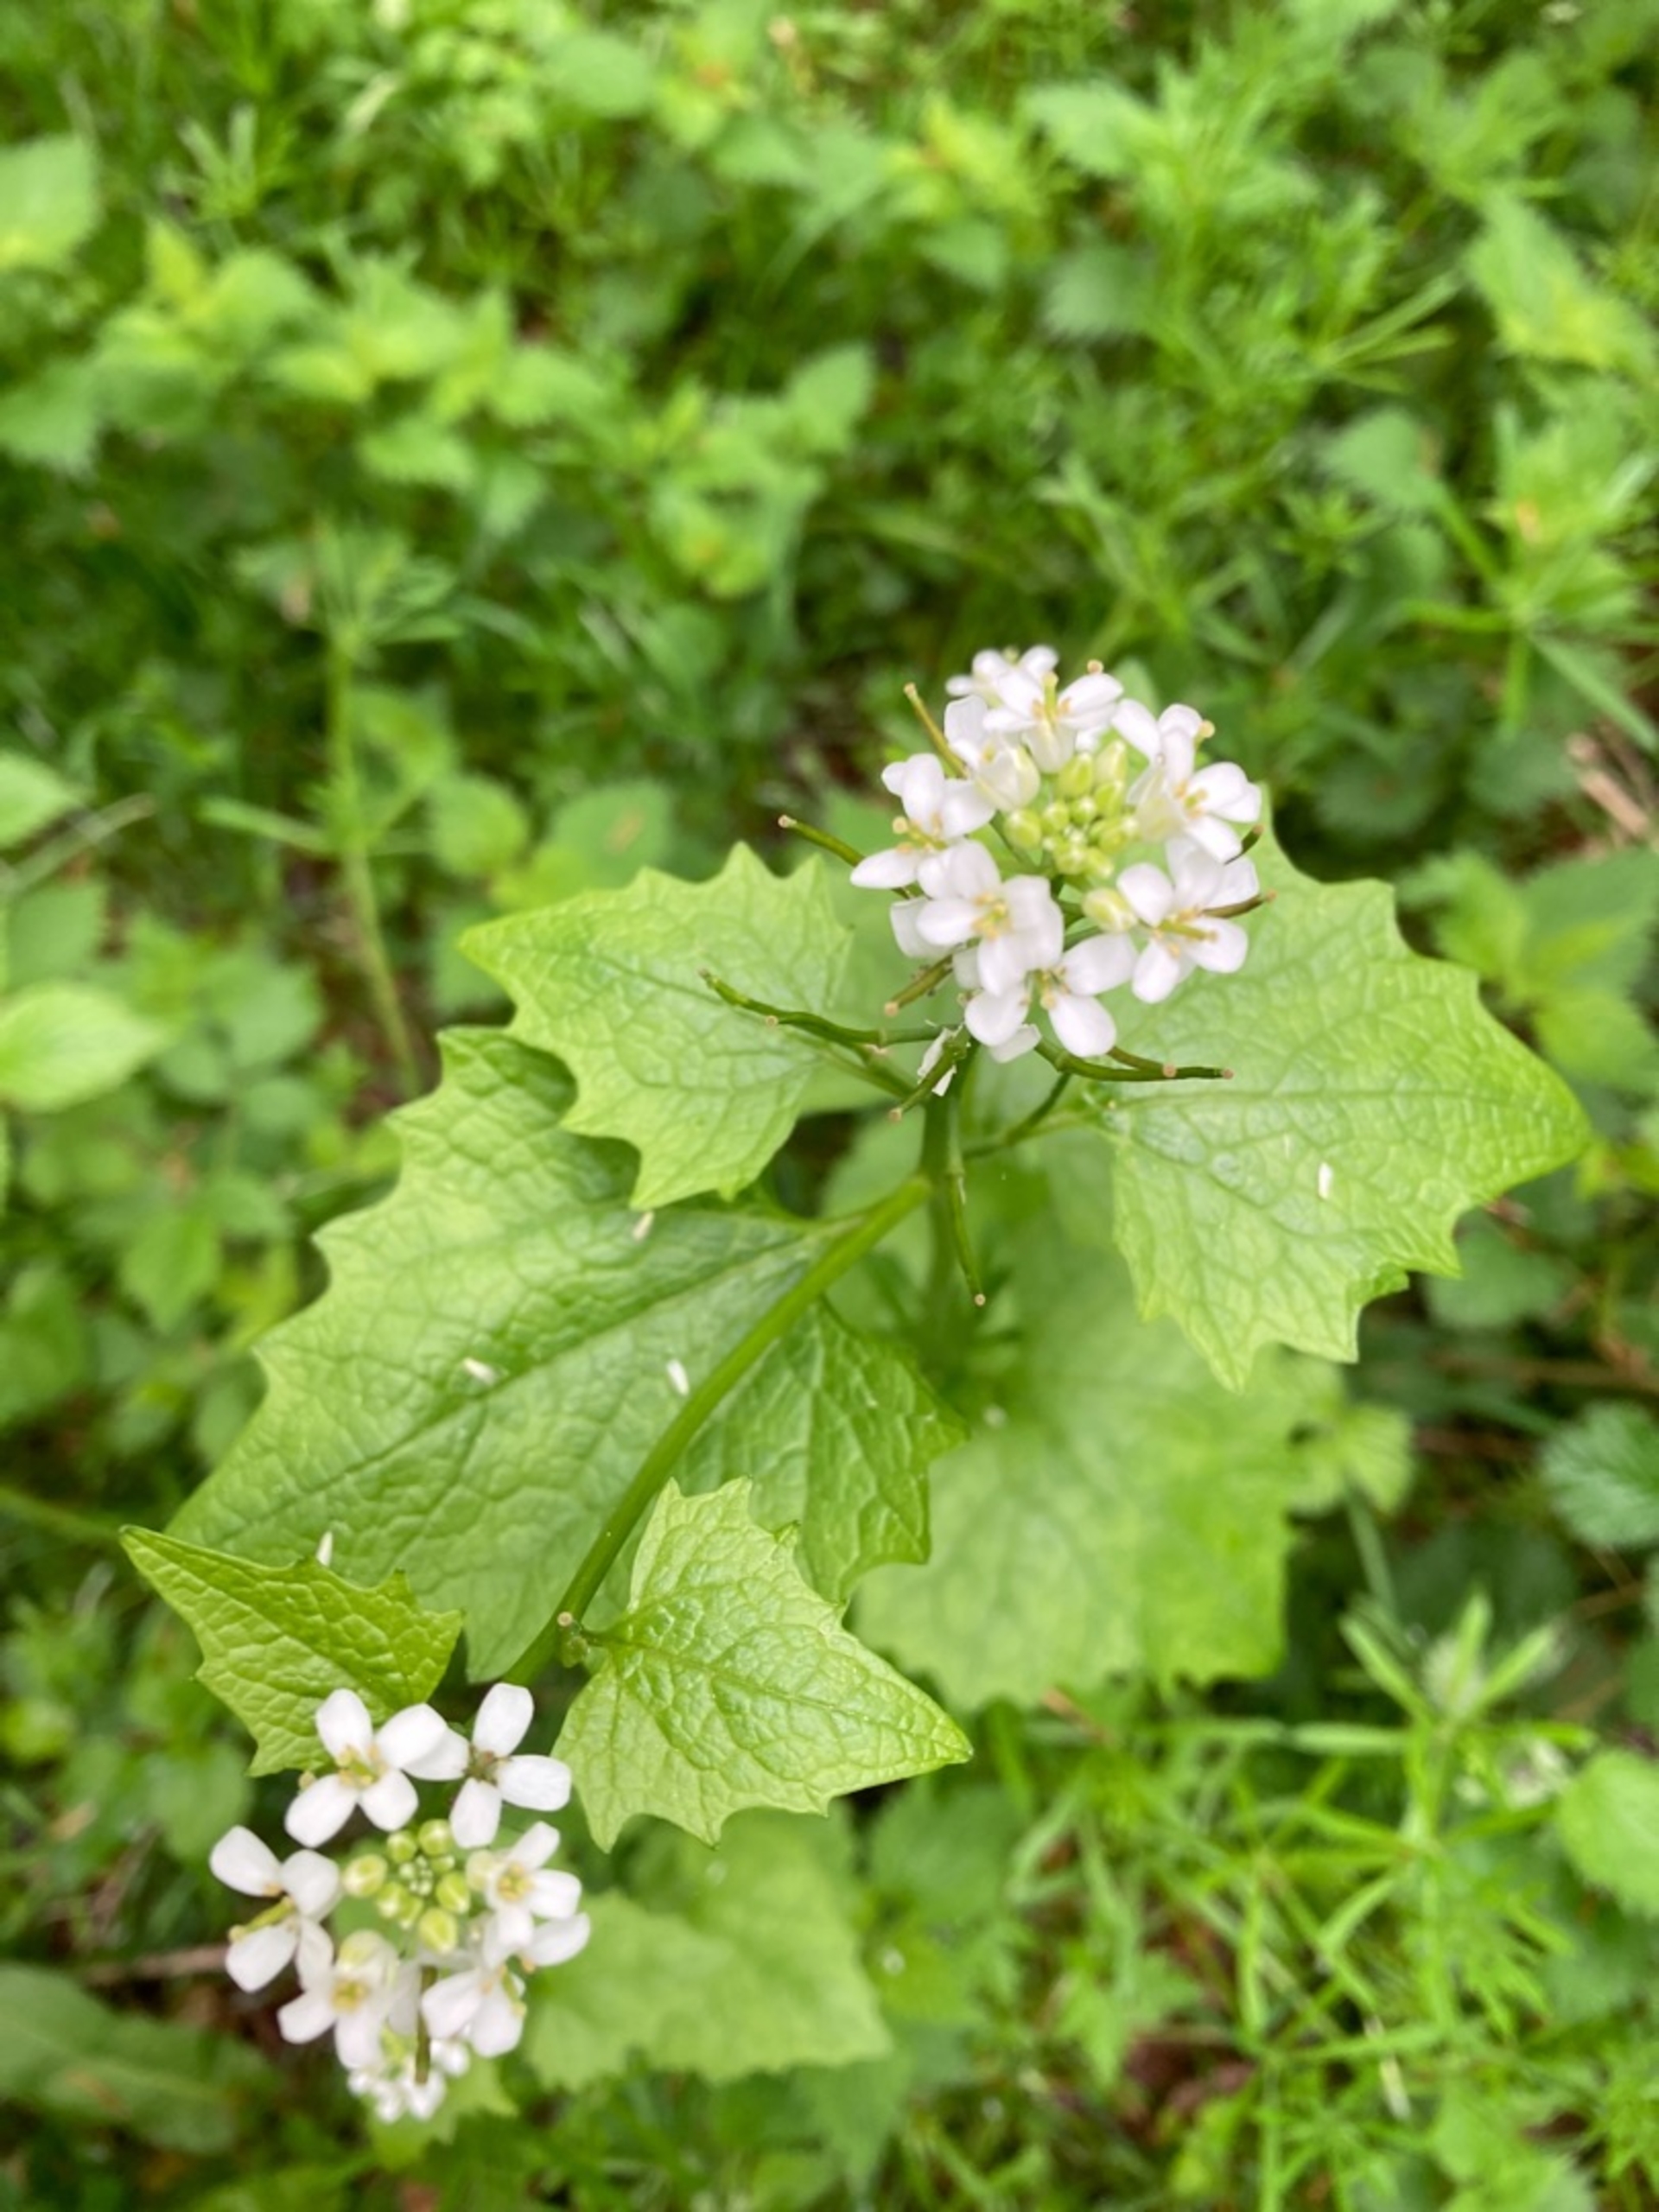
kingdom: Plantae
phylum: Tracheophyta
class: Magnoliopsida
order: Brassicales
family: Brassicaceae
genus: Alliaria
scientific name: Alliaria petiolata
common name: Løgkarse
